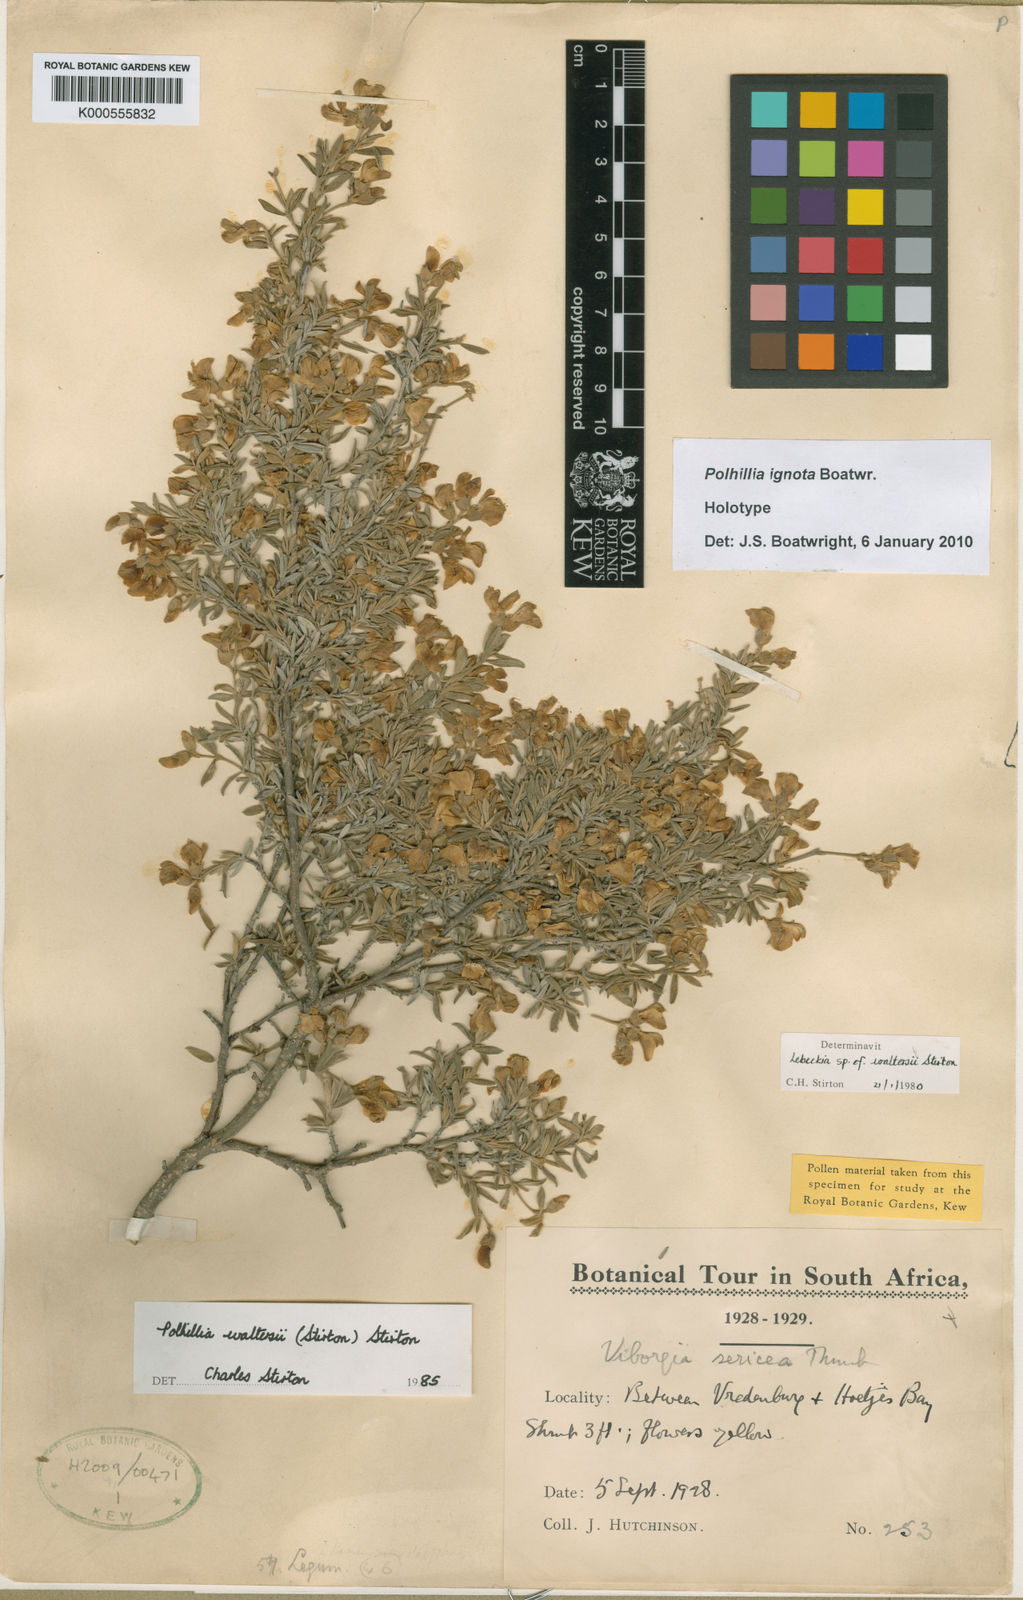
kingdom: Plantae
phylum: Tracheophyta
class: Magnoliopsida
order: Fabales
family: Fabaceae
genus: Polhillia
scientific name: Polhillia ignota
